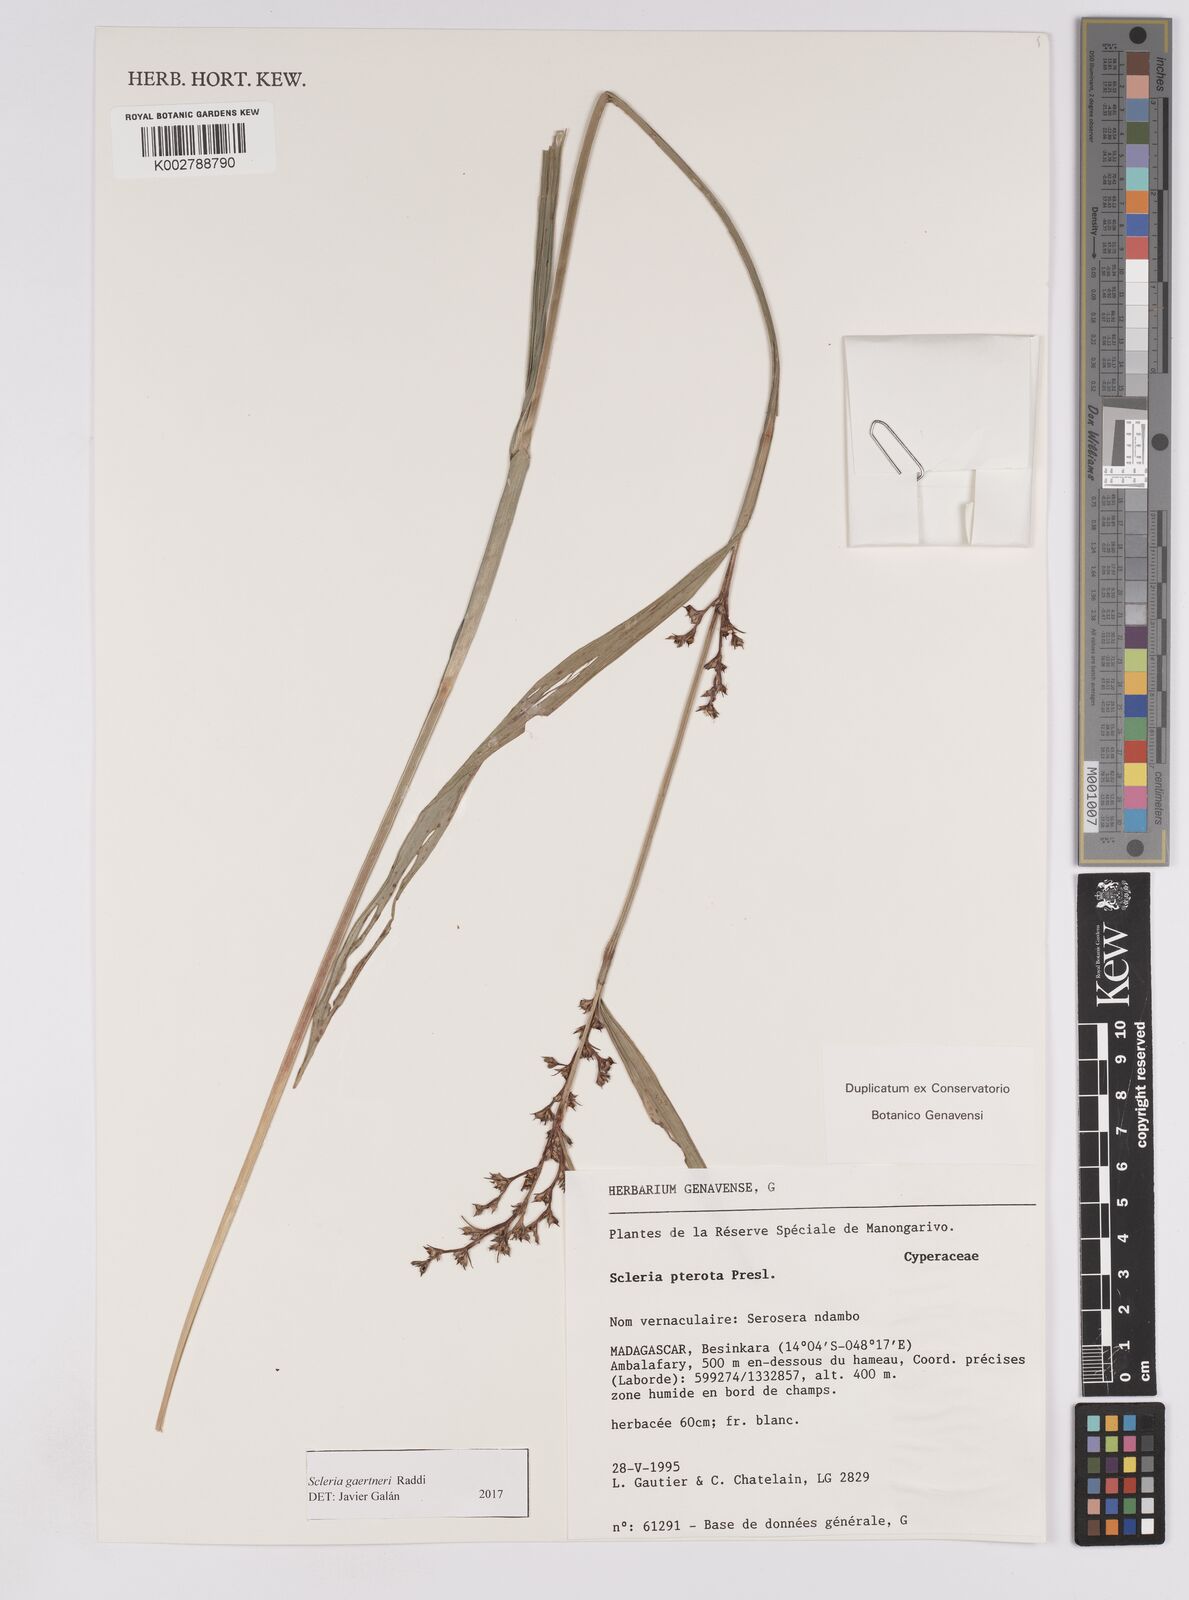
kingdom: Plantae
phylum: Tracheophyta
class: Liliopsida
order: Poales
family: Cyperaceae
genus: Scleria
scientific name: Scleria gaertneri
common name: Cortadera blanca
